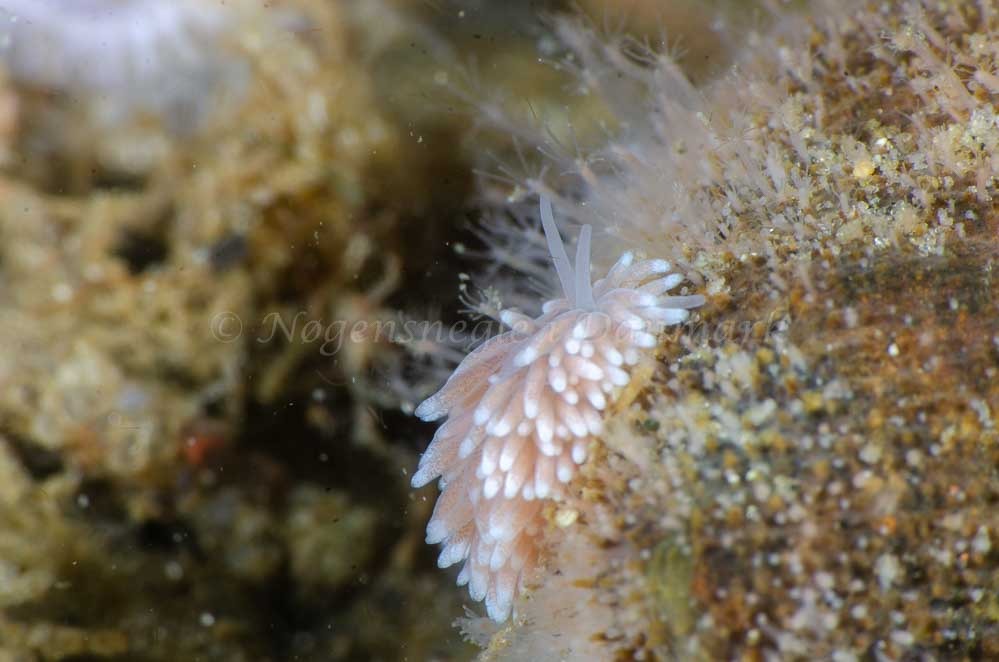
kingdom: Animalia
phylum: Mollusca
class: Gastropoda
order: Nudibranchia
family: Cuthonidae
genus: Cuthona
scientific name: Cuthona nana
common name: Eremittrådsnegl
